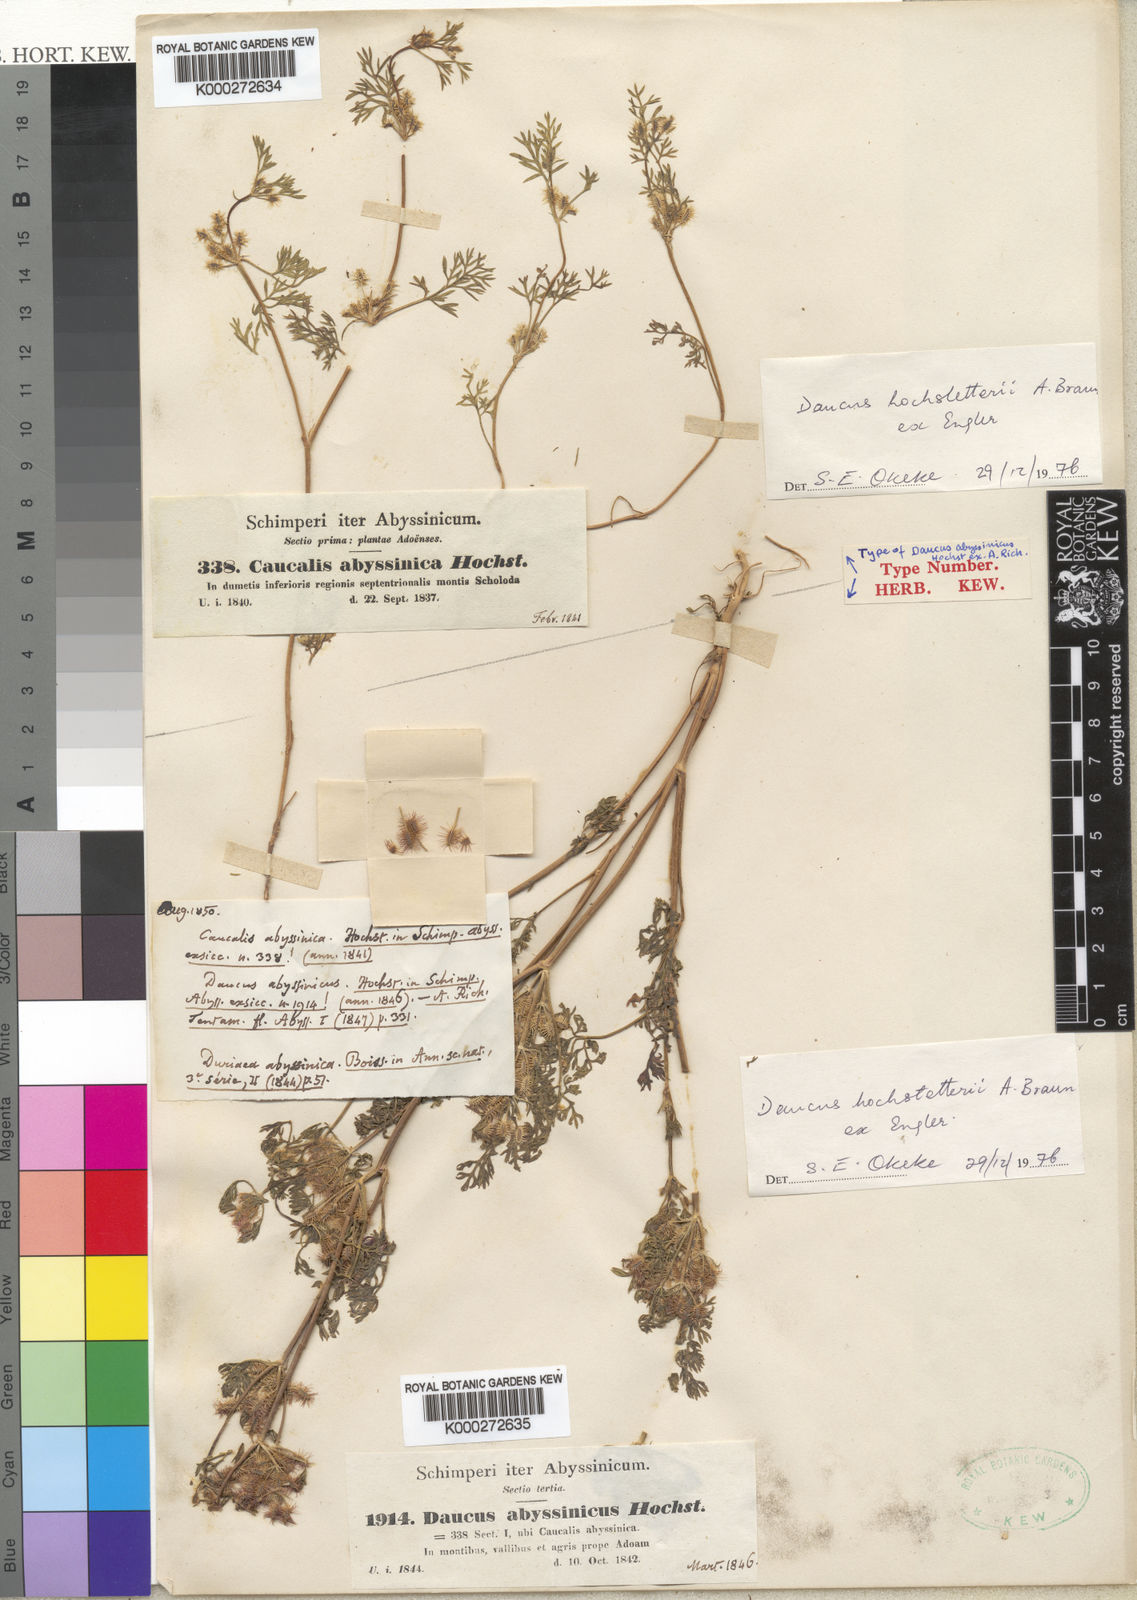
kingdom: Plantae
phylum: Tracheophyta
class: Magnoliopsida
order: Apiales
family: Apiaceae
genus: Daucus
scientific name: Daucus
